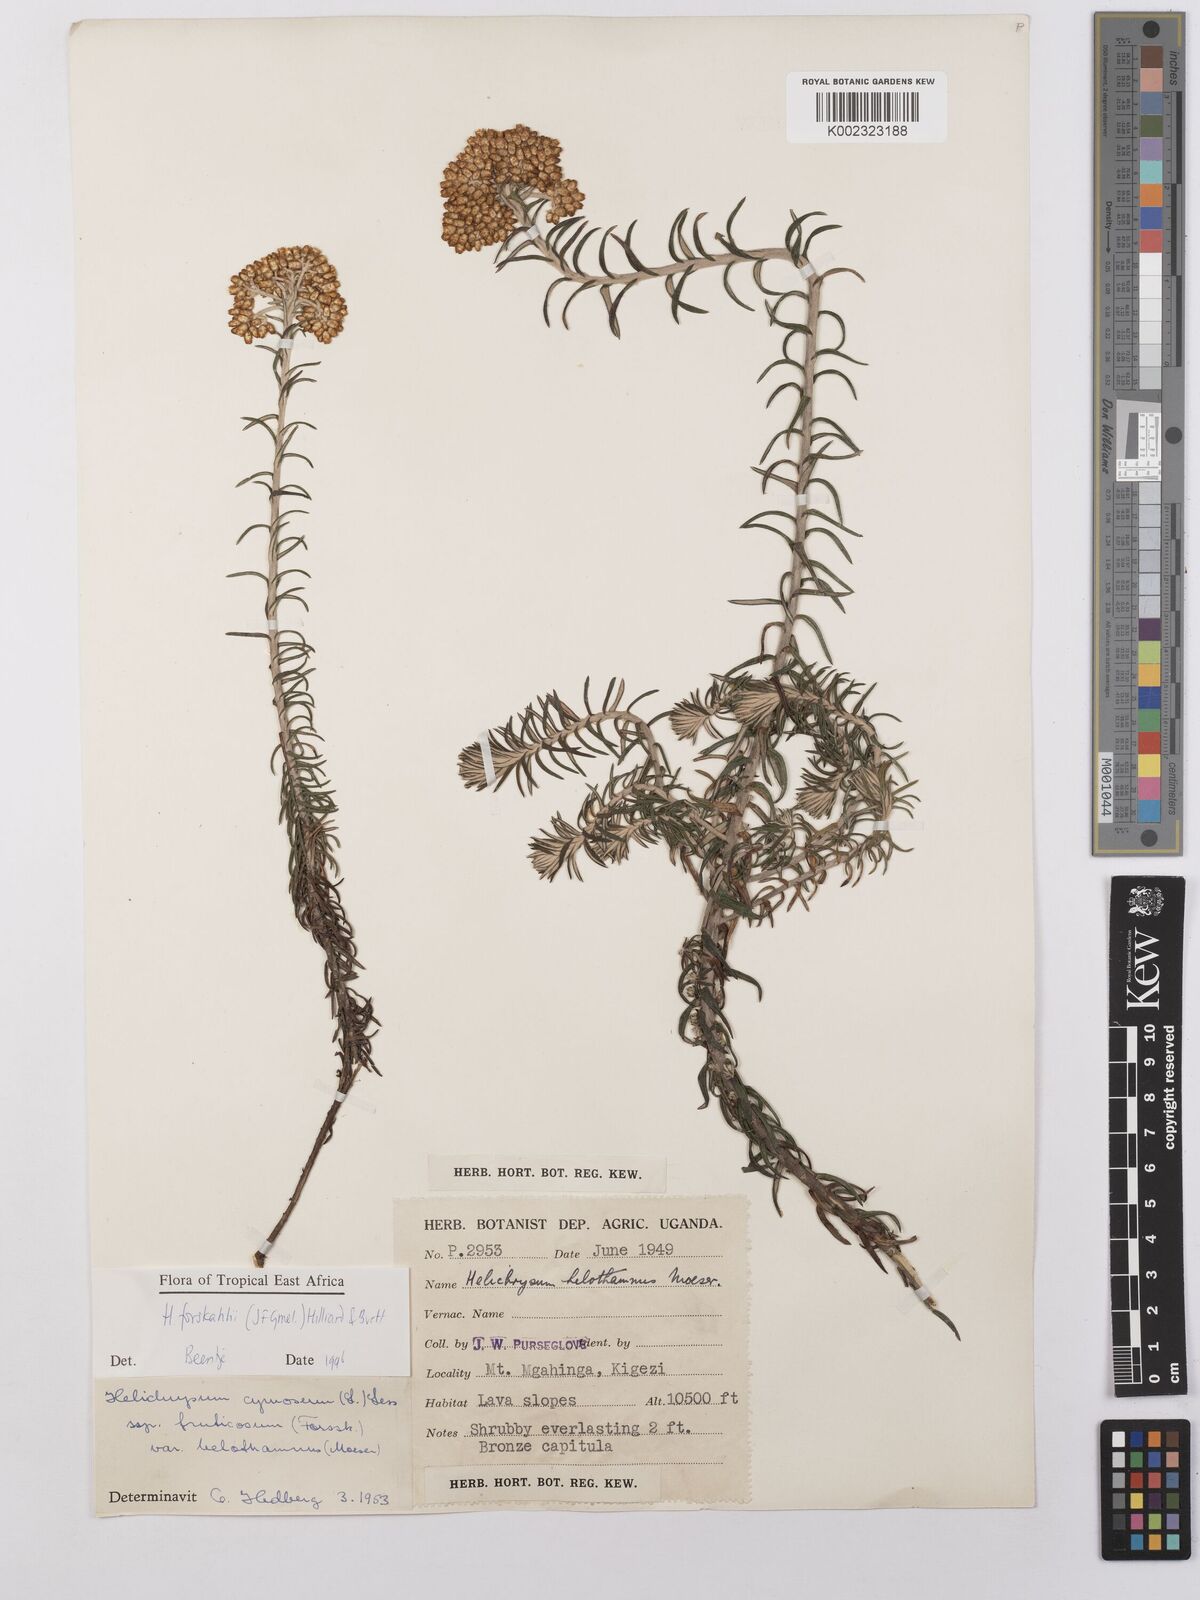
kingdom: Plantae
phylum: Tracheophyta
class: Magnoliopsida
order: Asterales
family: Asteraceae
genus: Helichrysum
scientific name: Helichrysum forskahlii
